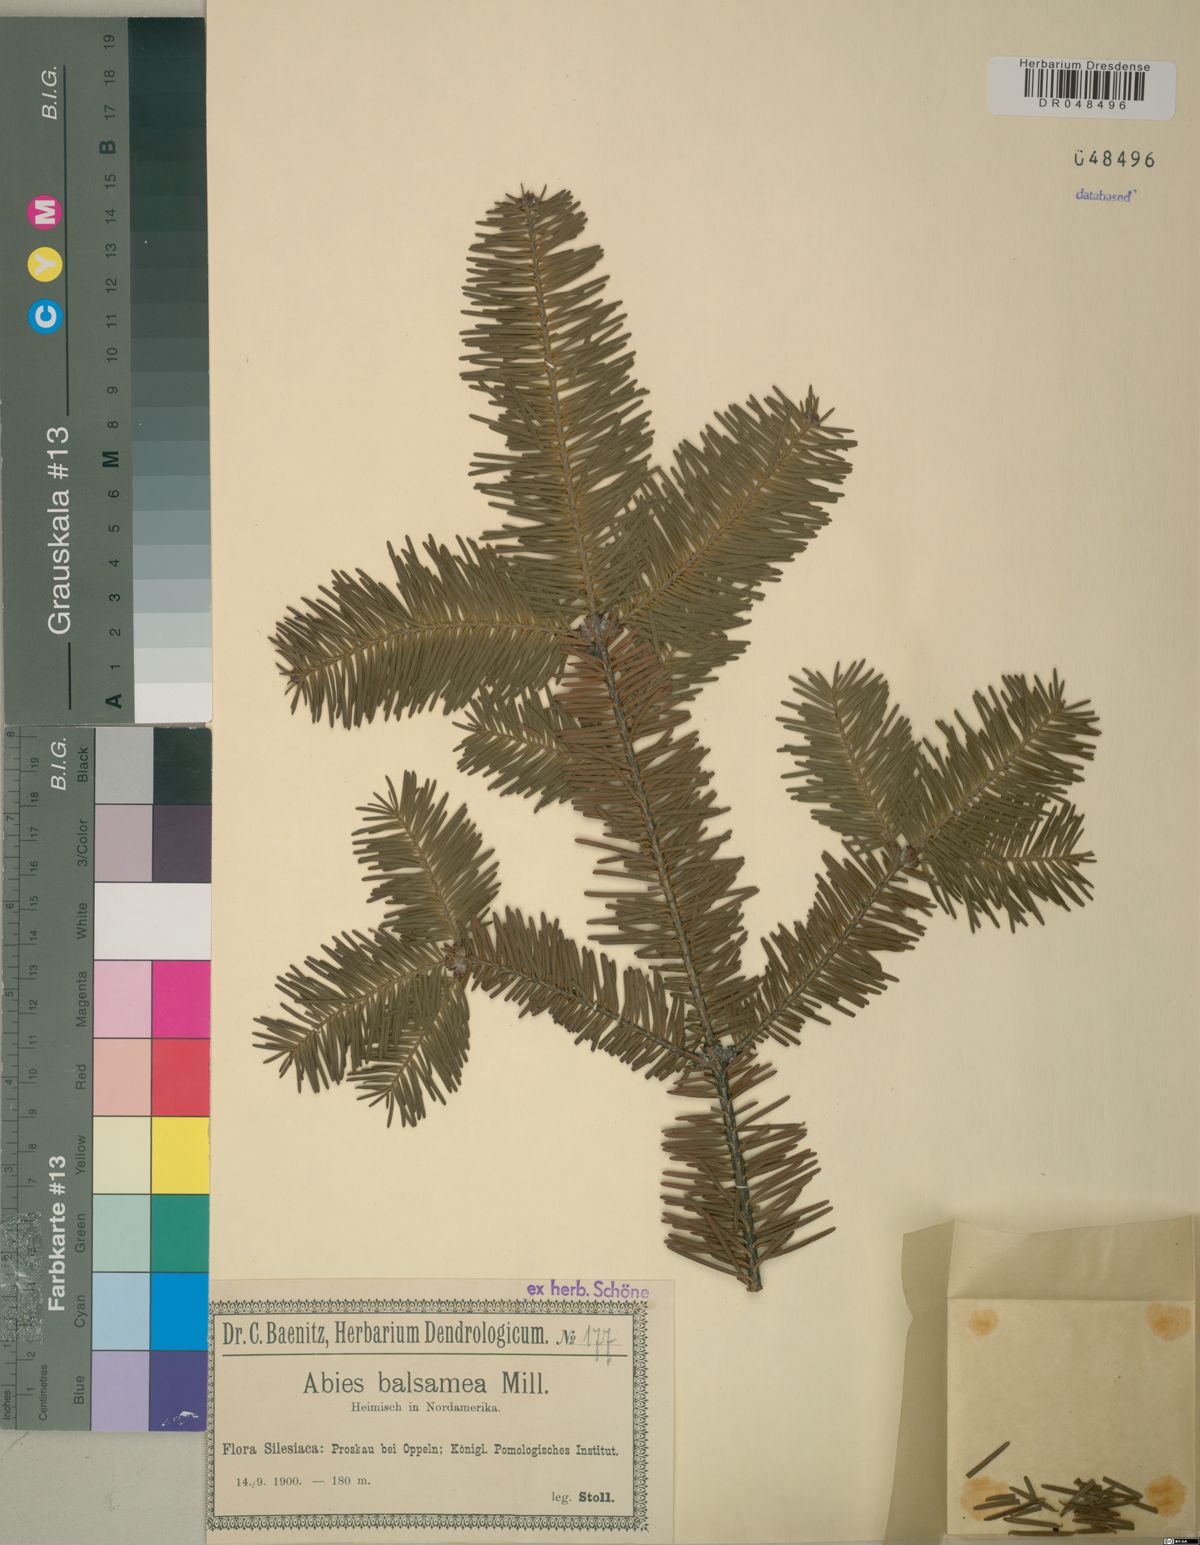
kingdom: Plantae
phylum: Tracheophyta
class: Pinopsida
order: Pinales
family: Pinaceae
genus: Abies
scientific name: Abies balsamea
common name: Balsam fir
